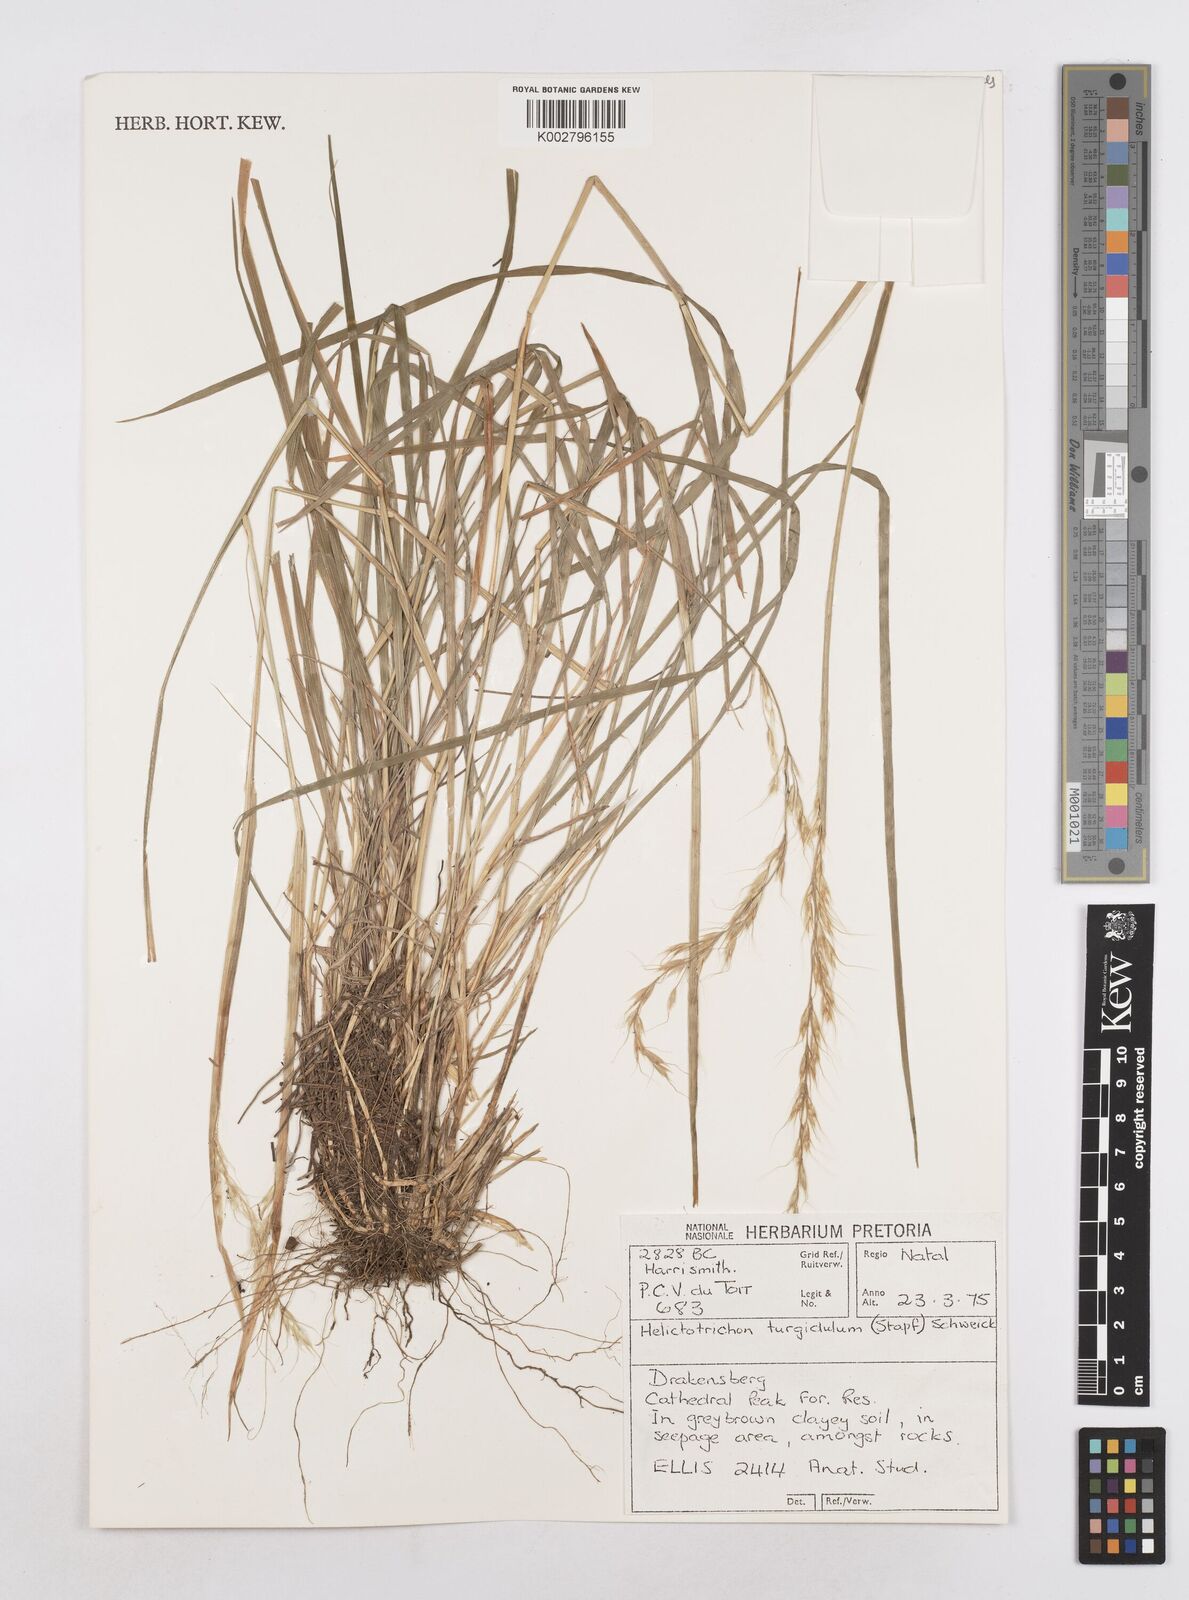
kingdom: Plantae
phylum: Tracheophyta
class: Liliopsida
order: Poales
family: Poaceae
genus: Trisetopsis
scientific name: Trisetopsis imberbis
